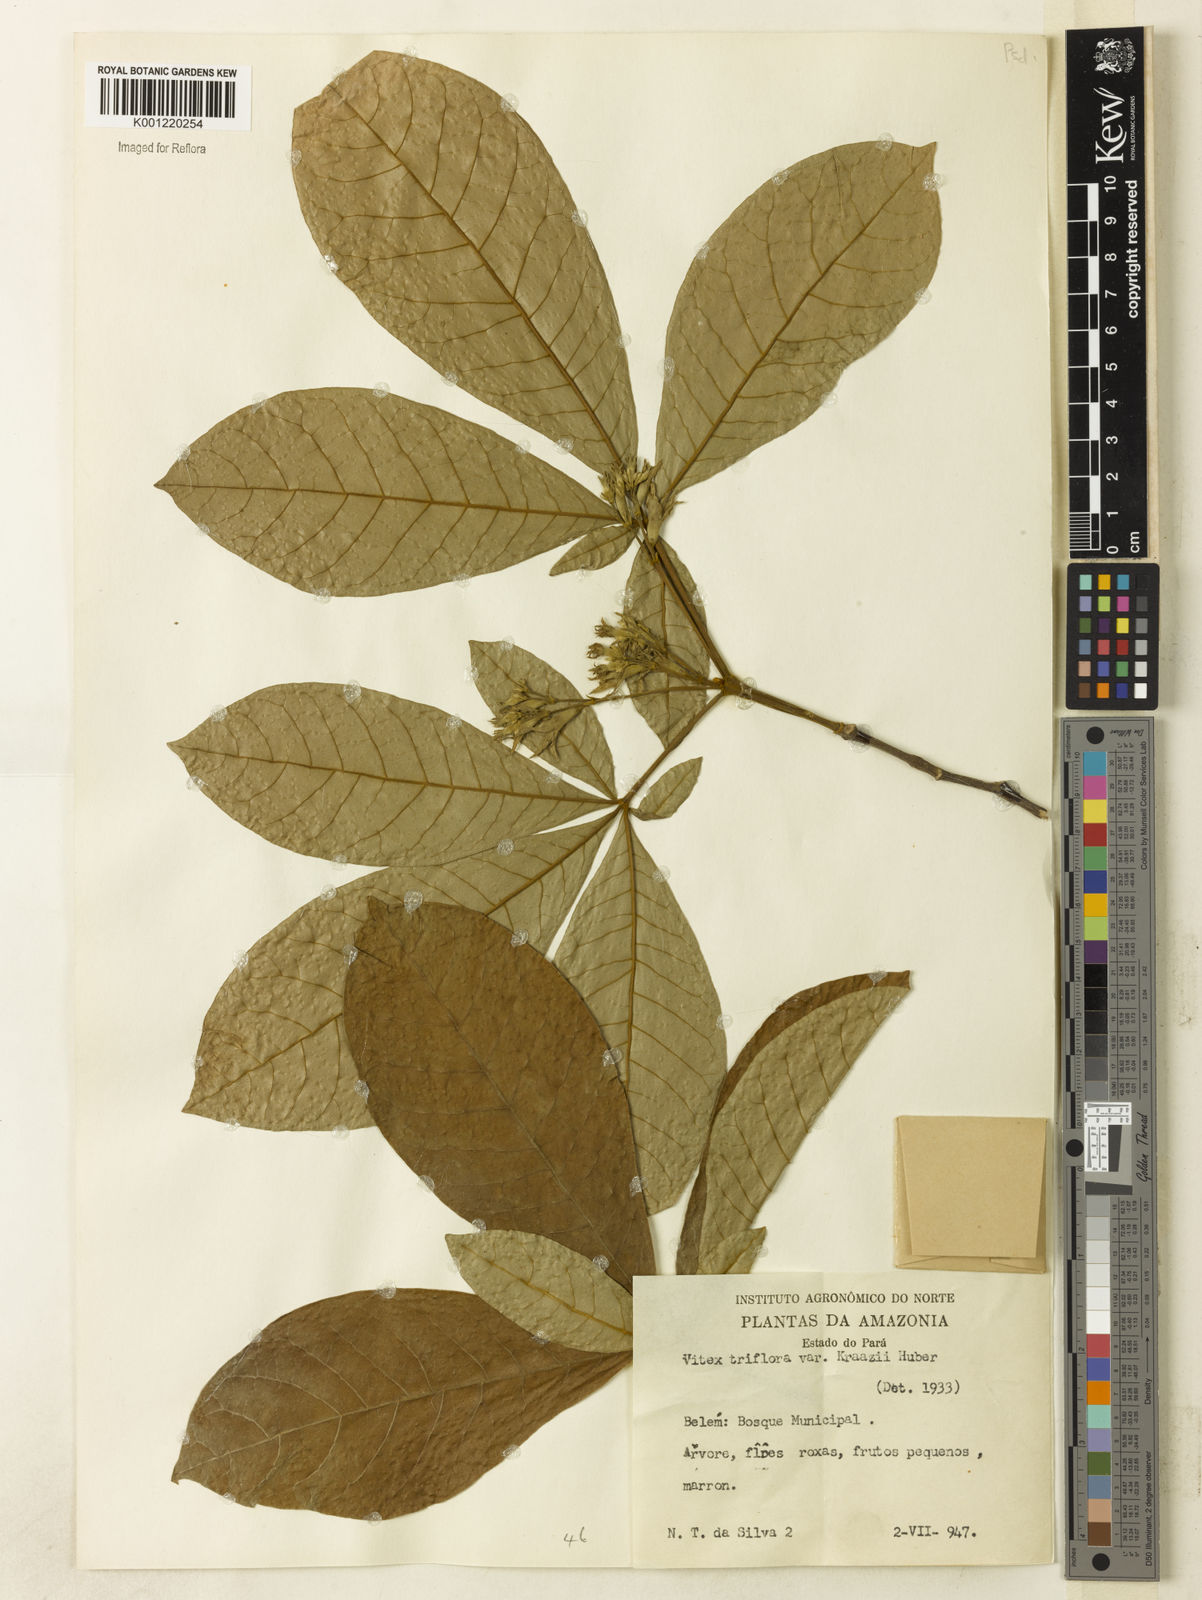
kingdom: Plantae
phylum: Tracheophyta
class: Magnoliopsida
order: Lamiales
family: Lamiaceae
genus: Vitex
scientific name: Vitex triflora
